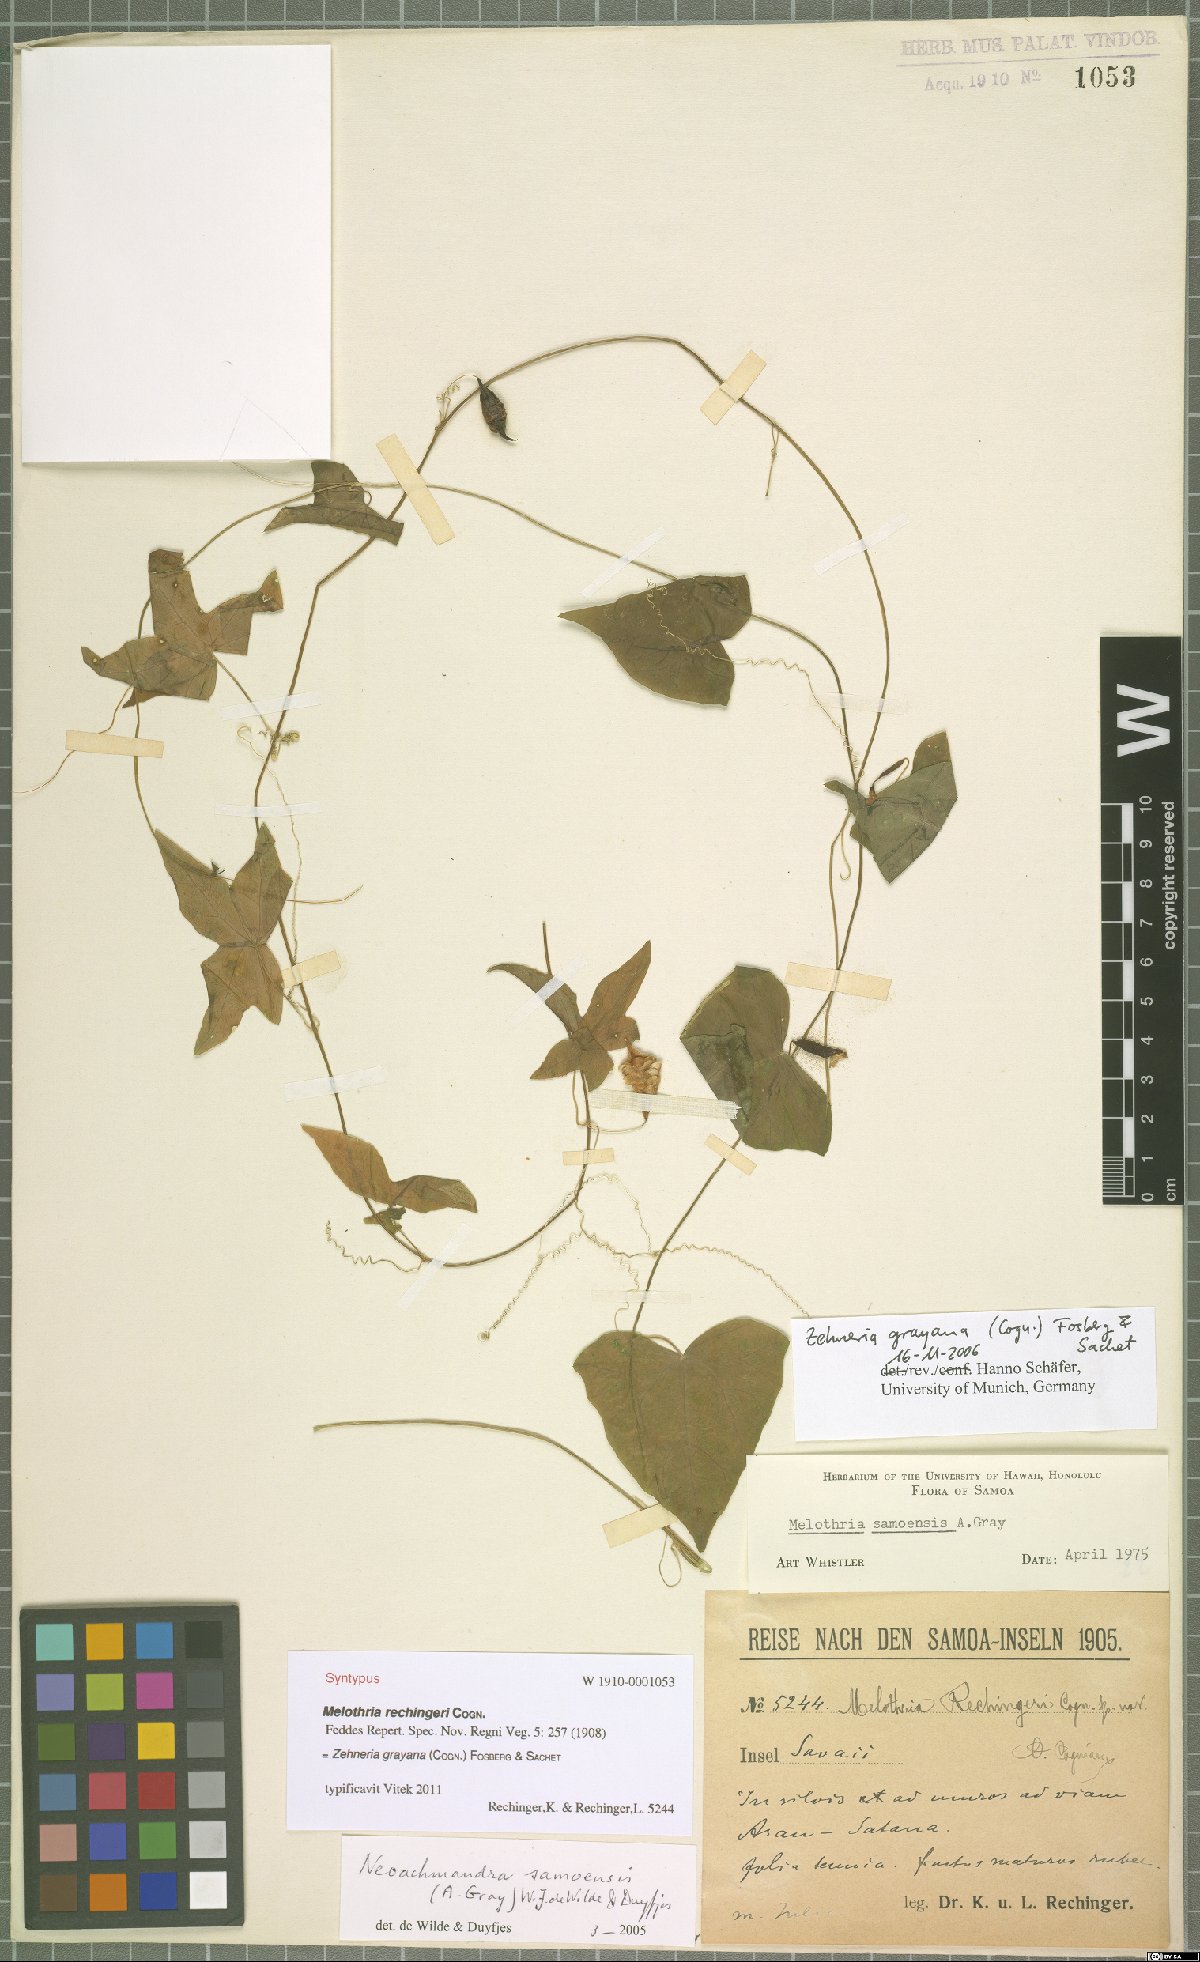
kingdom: Plantae
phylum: Tracheophyta
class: Magnoliopsida
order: Cucurbitales
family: Cucurbitaceae
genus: Zehneria
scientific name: Zehneria mucronata
